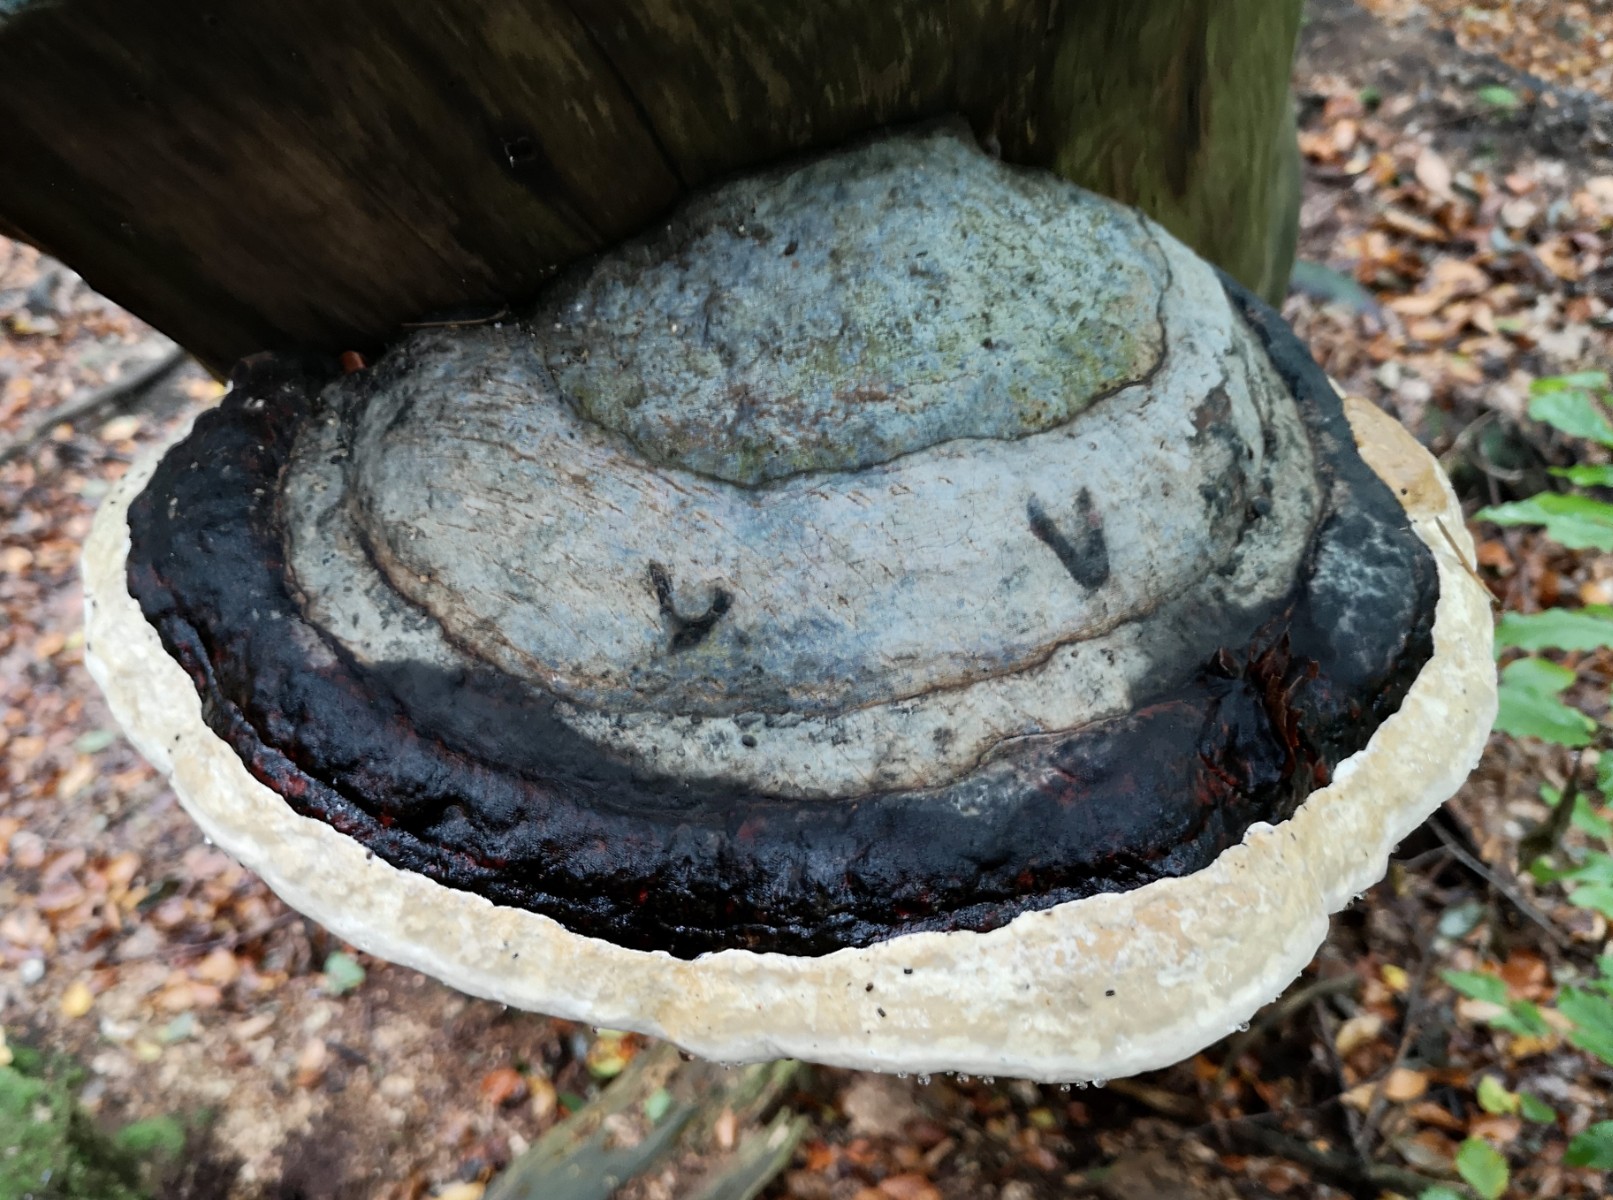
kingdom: Fungi
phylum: Basidiomycota
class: Agaricomycetes
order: Polyporales
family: Fomitopsidaceae
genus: Fomitopsis
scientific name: Fomitopsis pinicola
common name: randbæltet hovporesvamp
